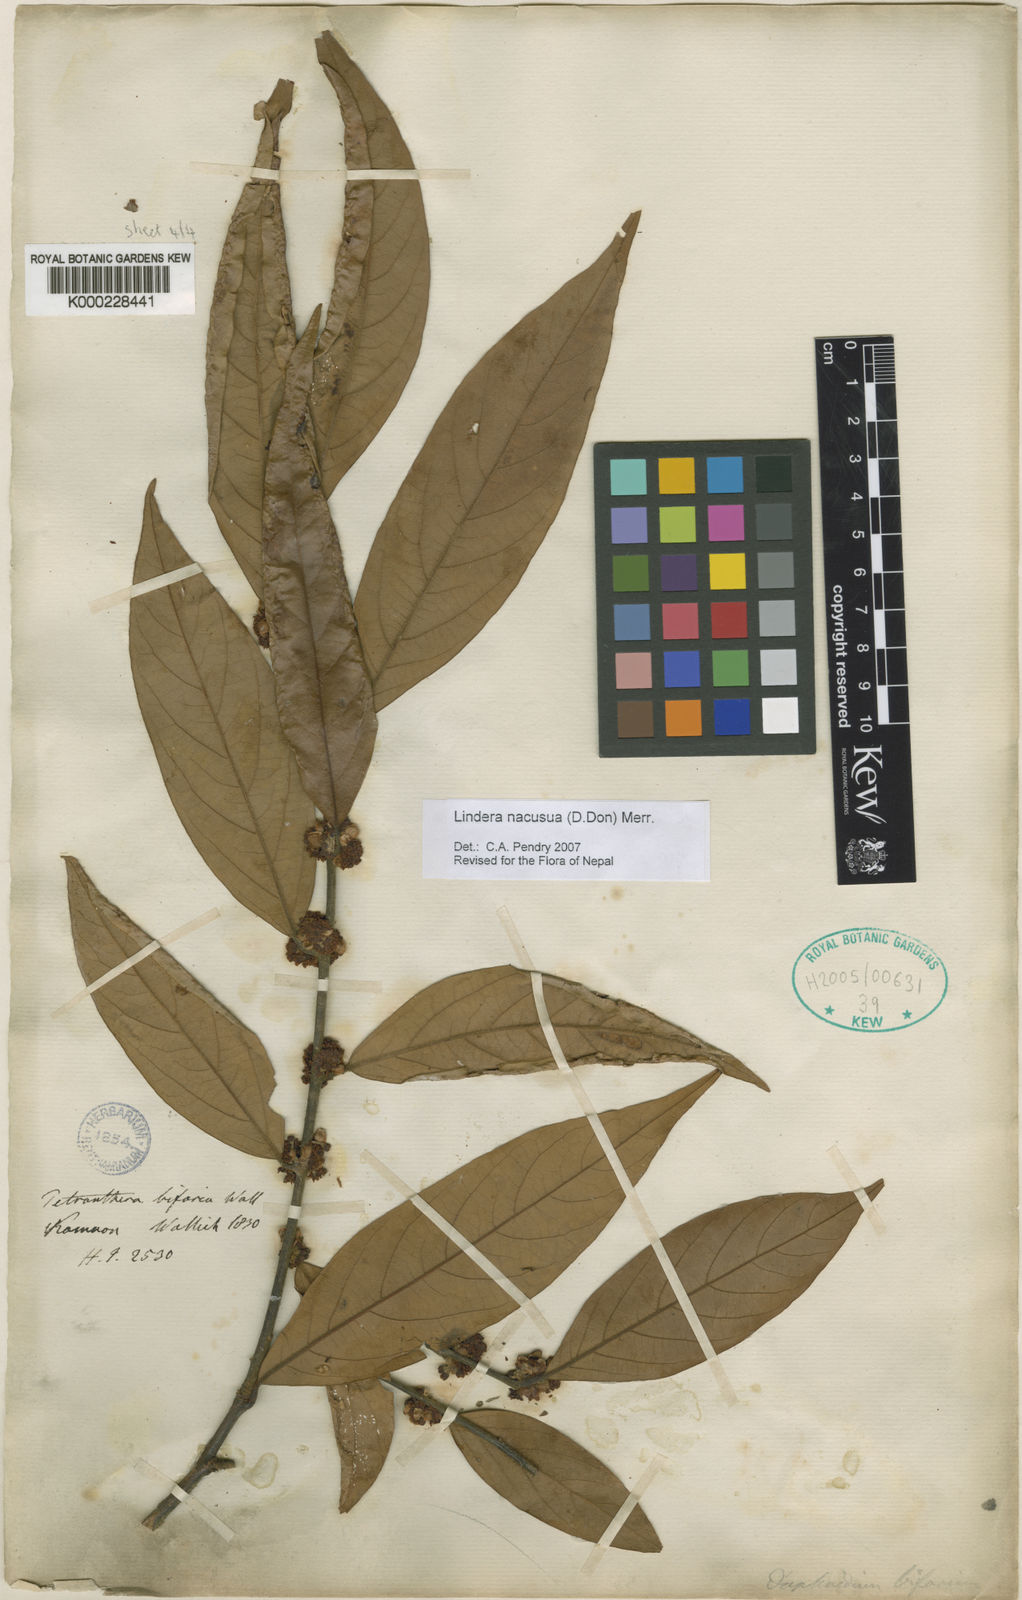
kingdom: Plantae
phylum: Tracheophyta
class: Magnoliopsida
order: Laurales
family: Lauraceae
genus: Lindera
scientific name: Lindera nacusua
